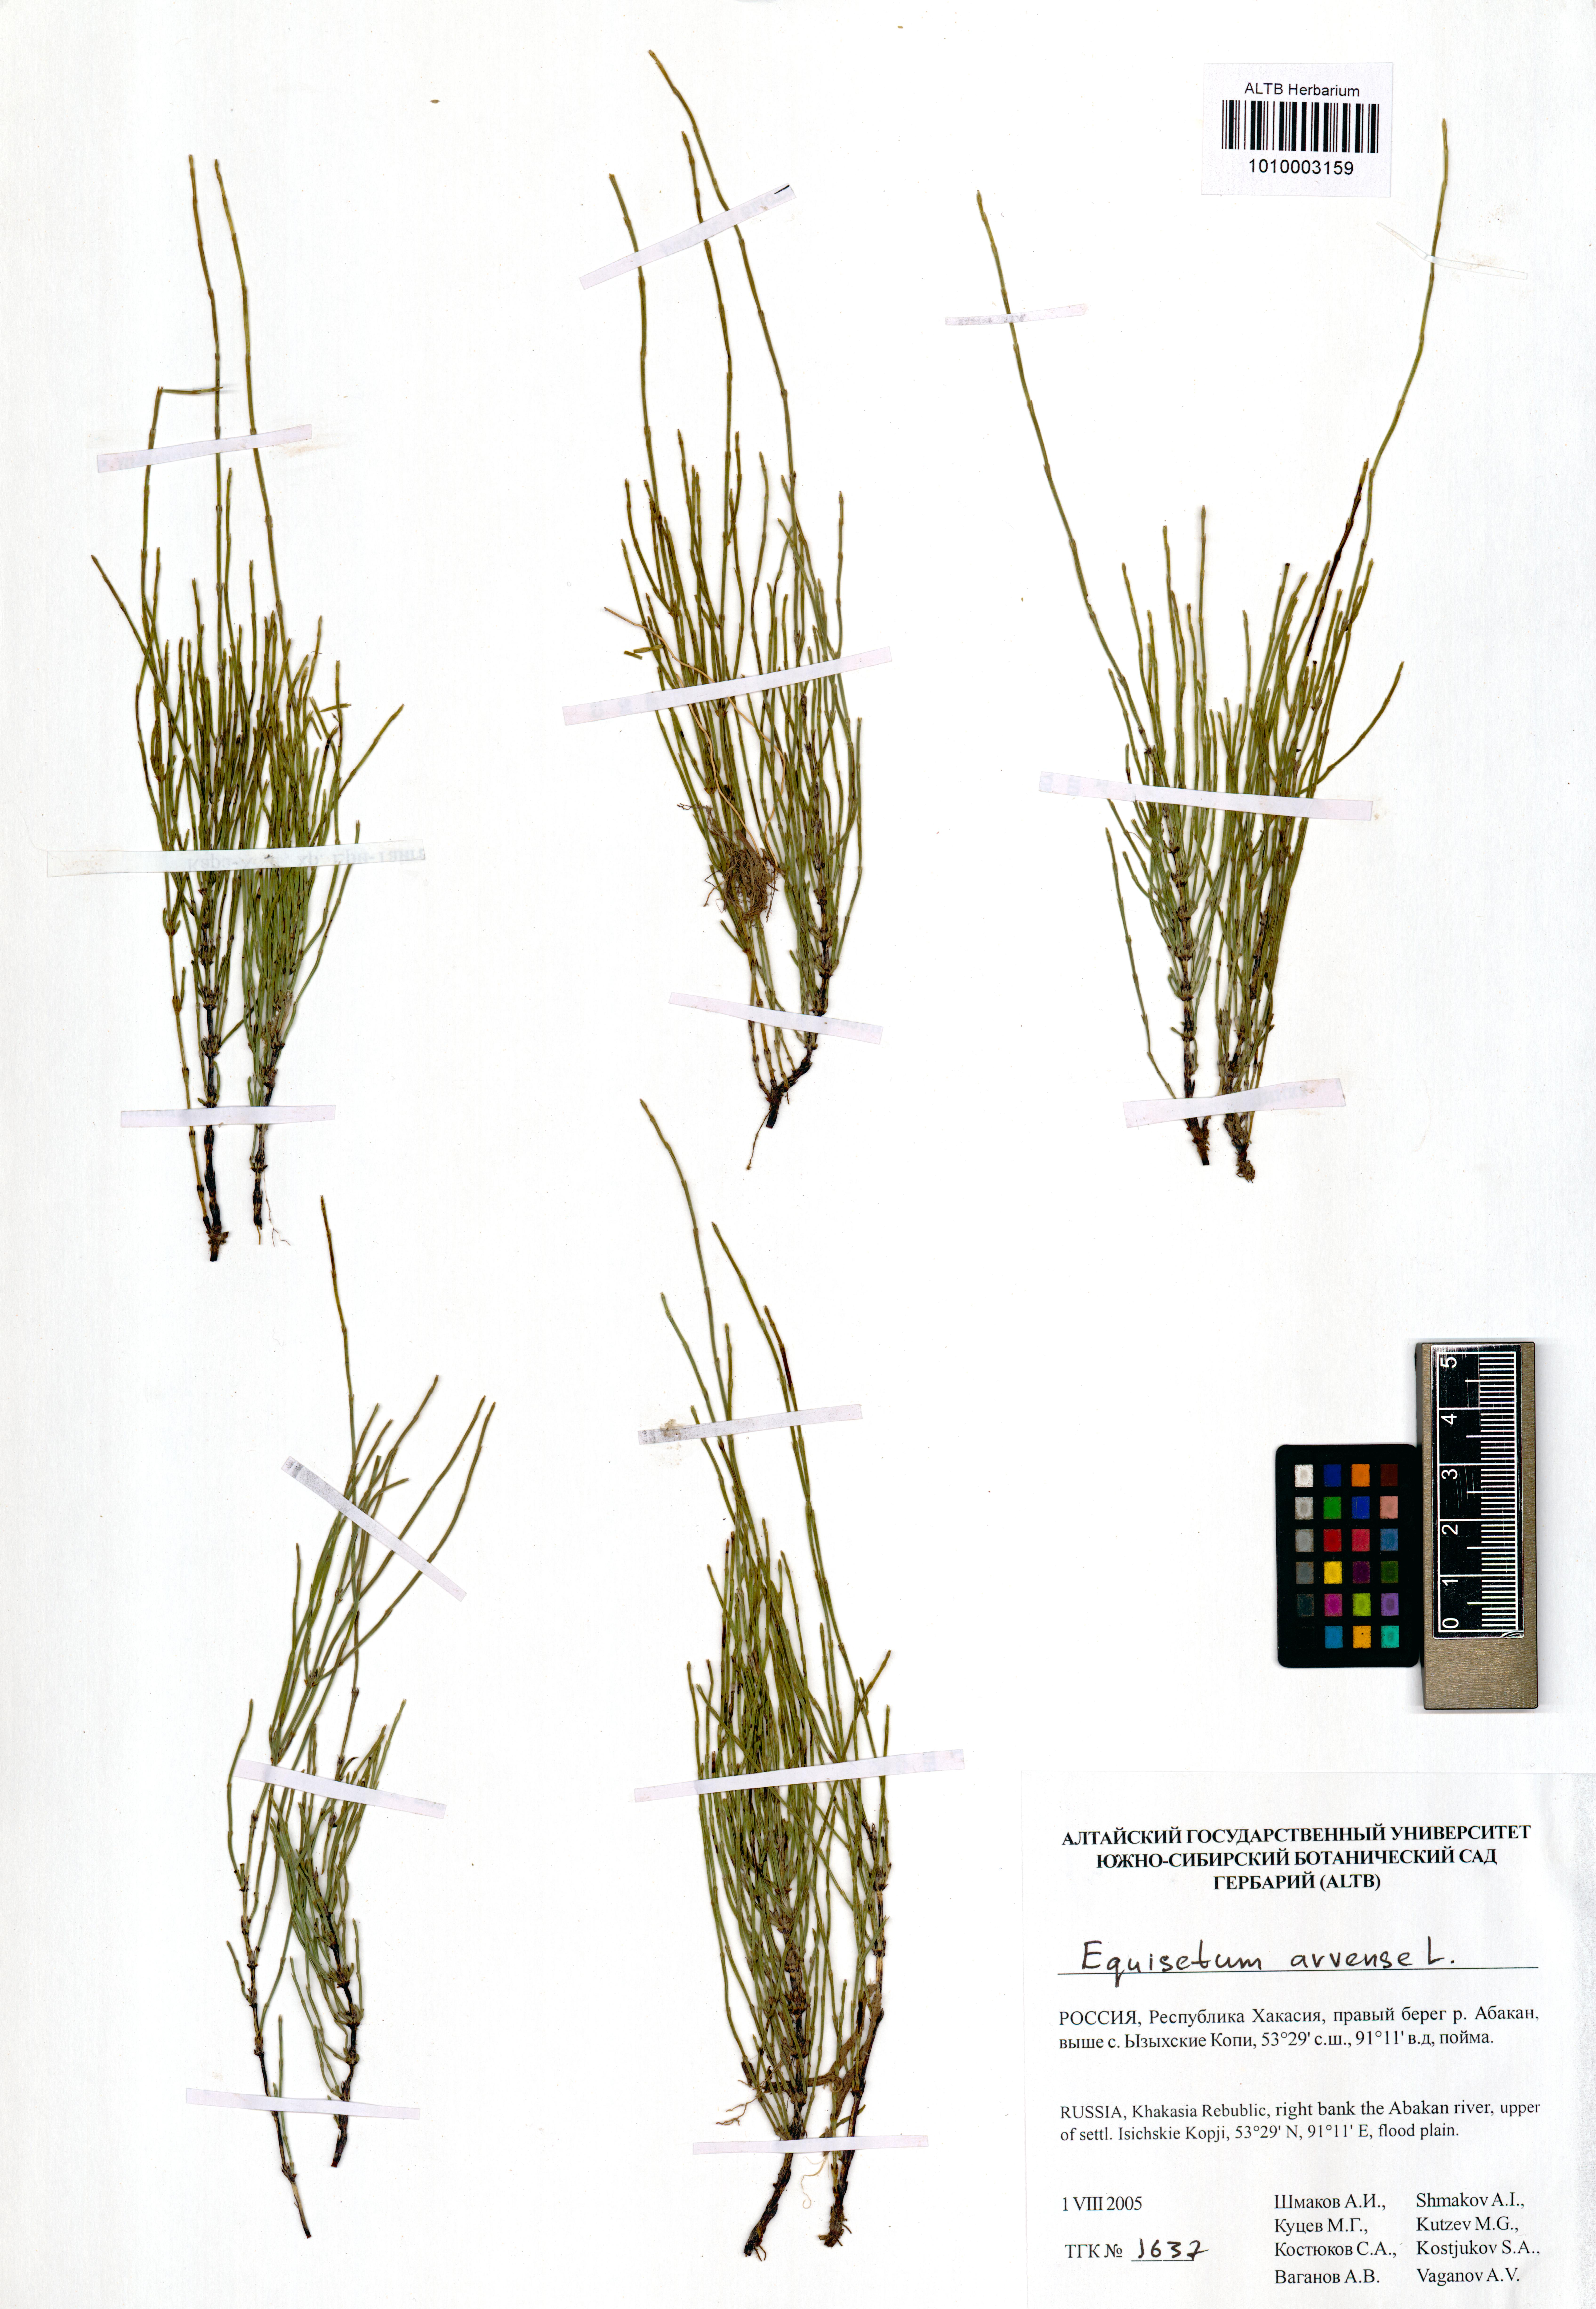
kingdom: Plantae
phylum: Tracheophyta
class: Polypodiopsida
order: Equisetales
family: Equisetaceae
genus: Equisetum
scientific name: Equisetum arvense
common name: Field horsetail
